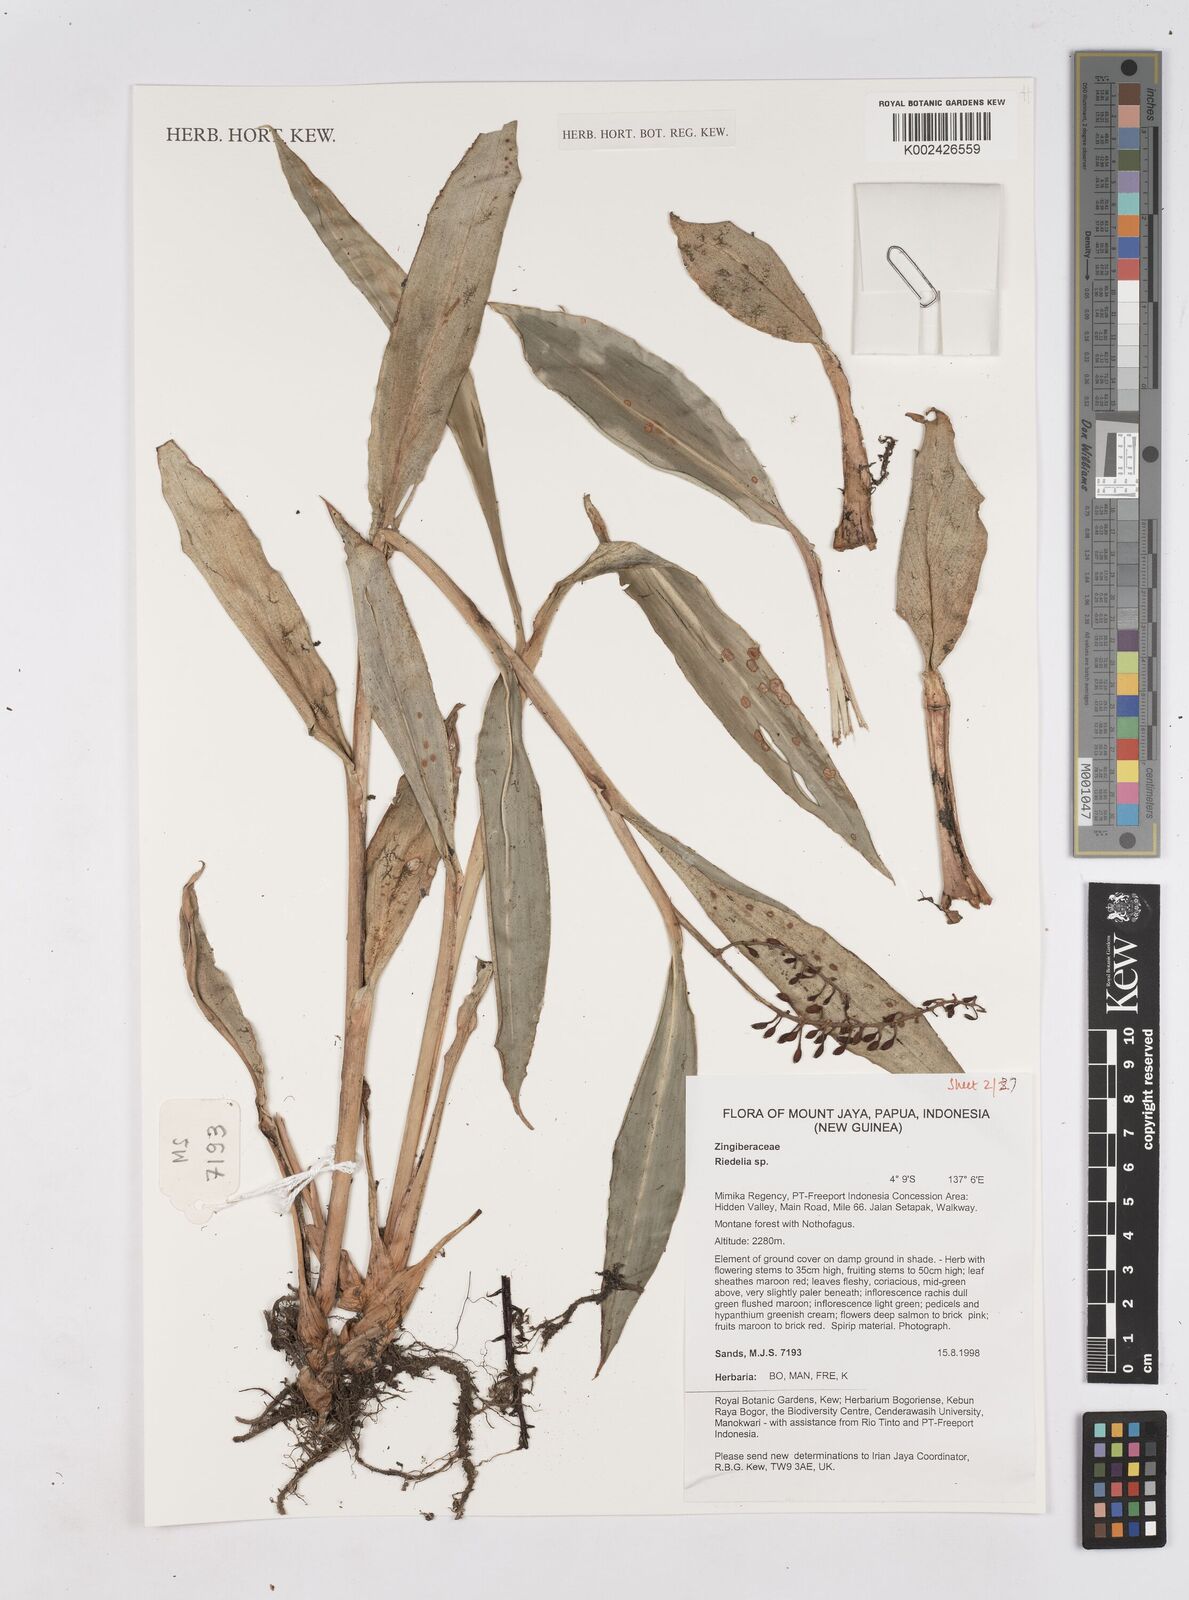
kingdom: Plantae
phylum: Tracheophyta
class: Liliopsida
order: Zingiberales
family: Zingiberaceae
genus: Riedelia
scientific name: Riedelia
